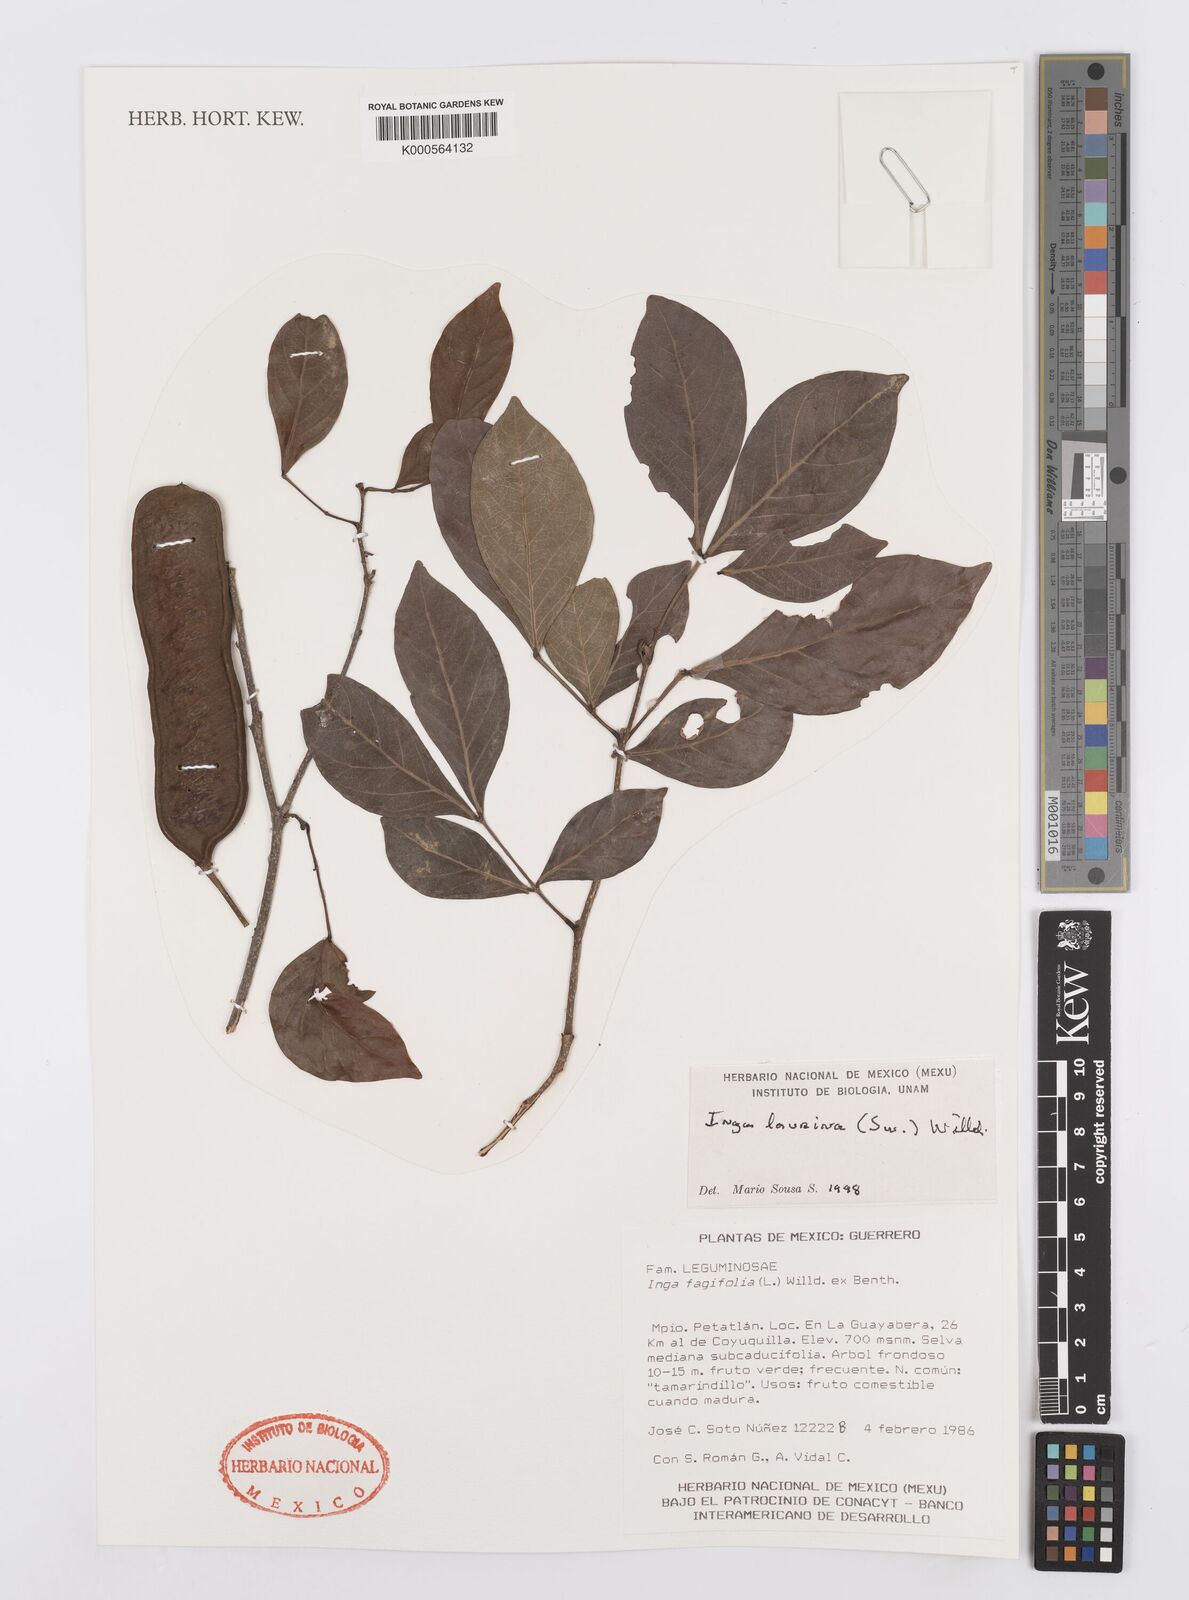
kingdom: Plantae
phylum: Tracheophyta
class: Magnoliopsida
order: Fabales
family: Fabaceae
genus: Inga
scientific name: Inga laurina
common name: Red wood
